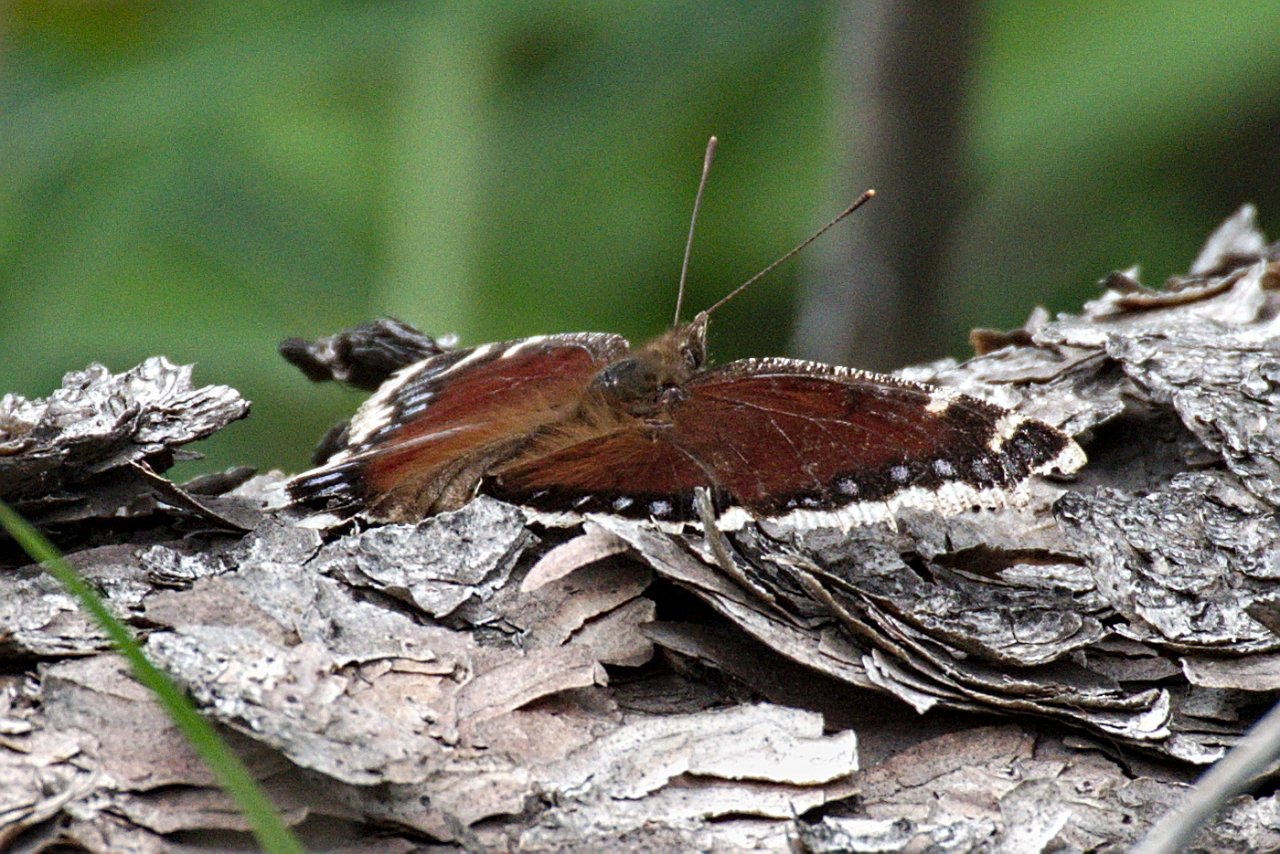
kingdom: Animalia
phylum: Arthropoda
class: Insecta
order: Lepidoptera
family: Nymphalidae
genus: Nymphalis
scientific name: Nymphalis antiopa
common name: Mourning Cloak
